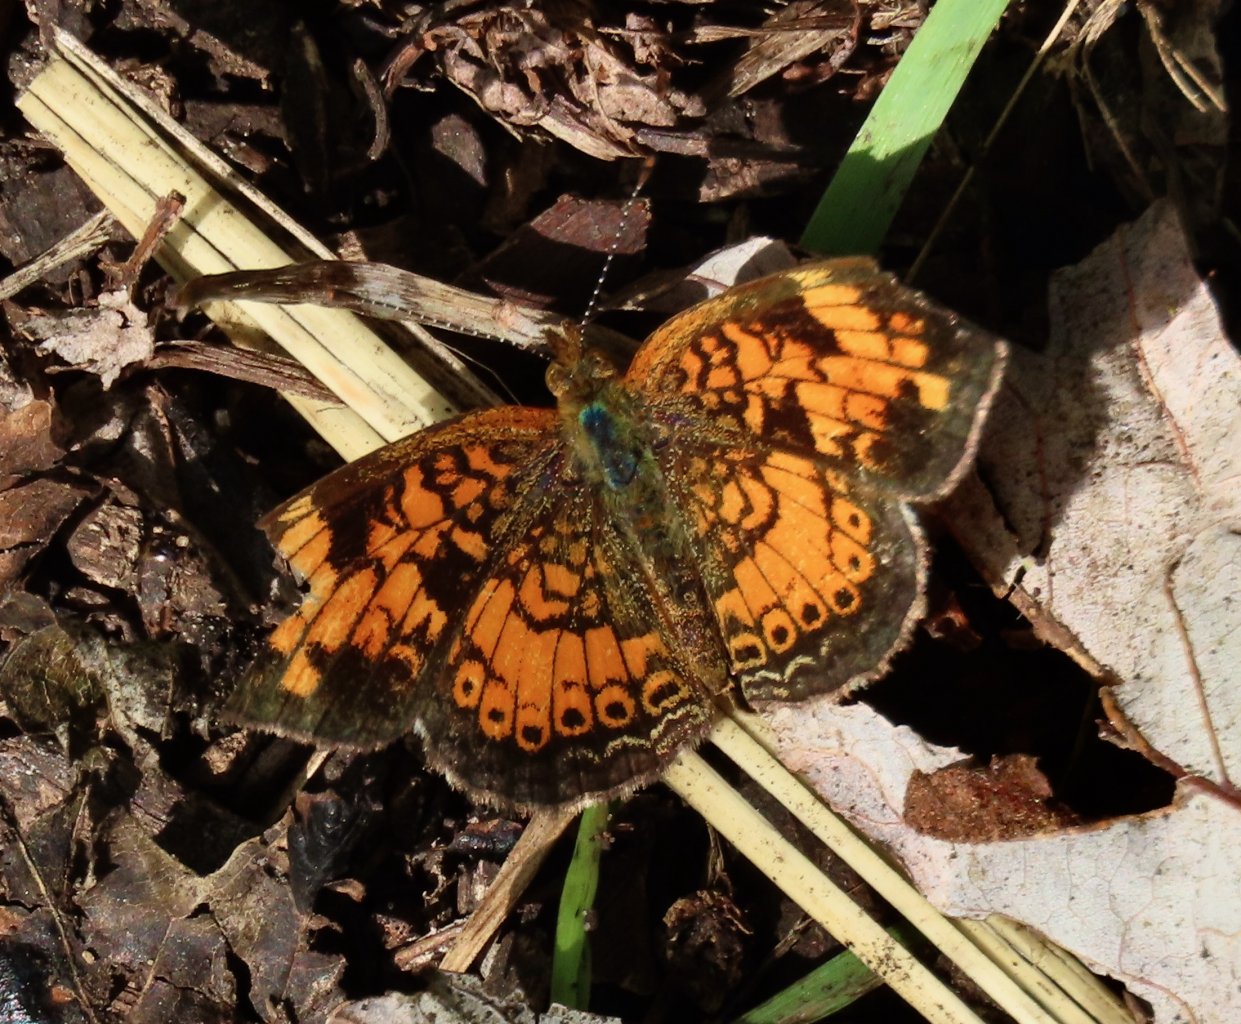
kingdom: Animalia
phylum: Arthropoda
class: Insecta
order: Lepidoptera
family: Nymphalidae
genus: Phyciodes
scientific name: Phyciodes tharos
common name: Pearl Crescent
